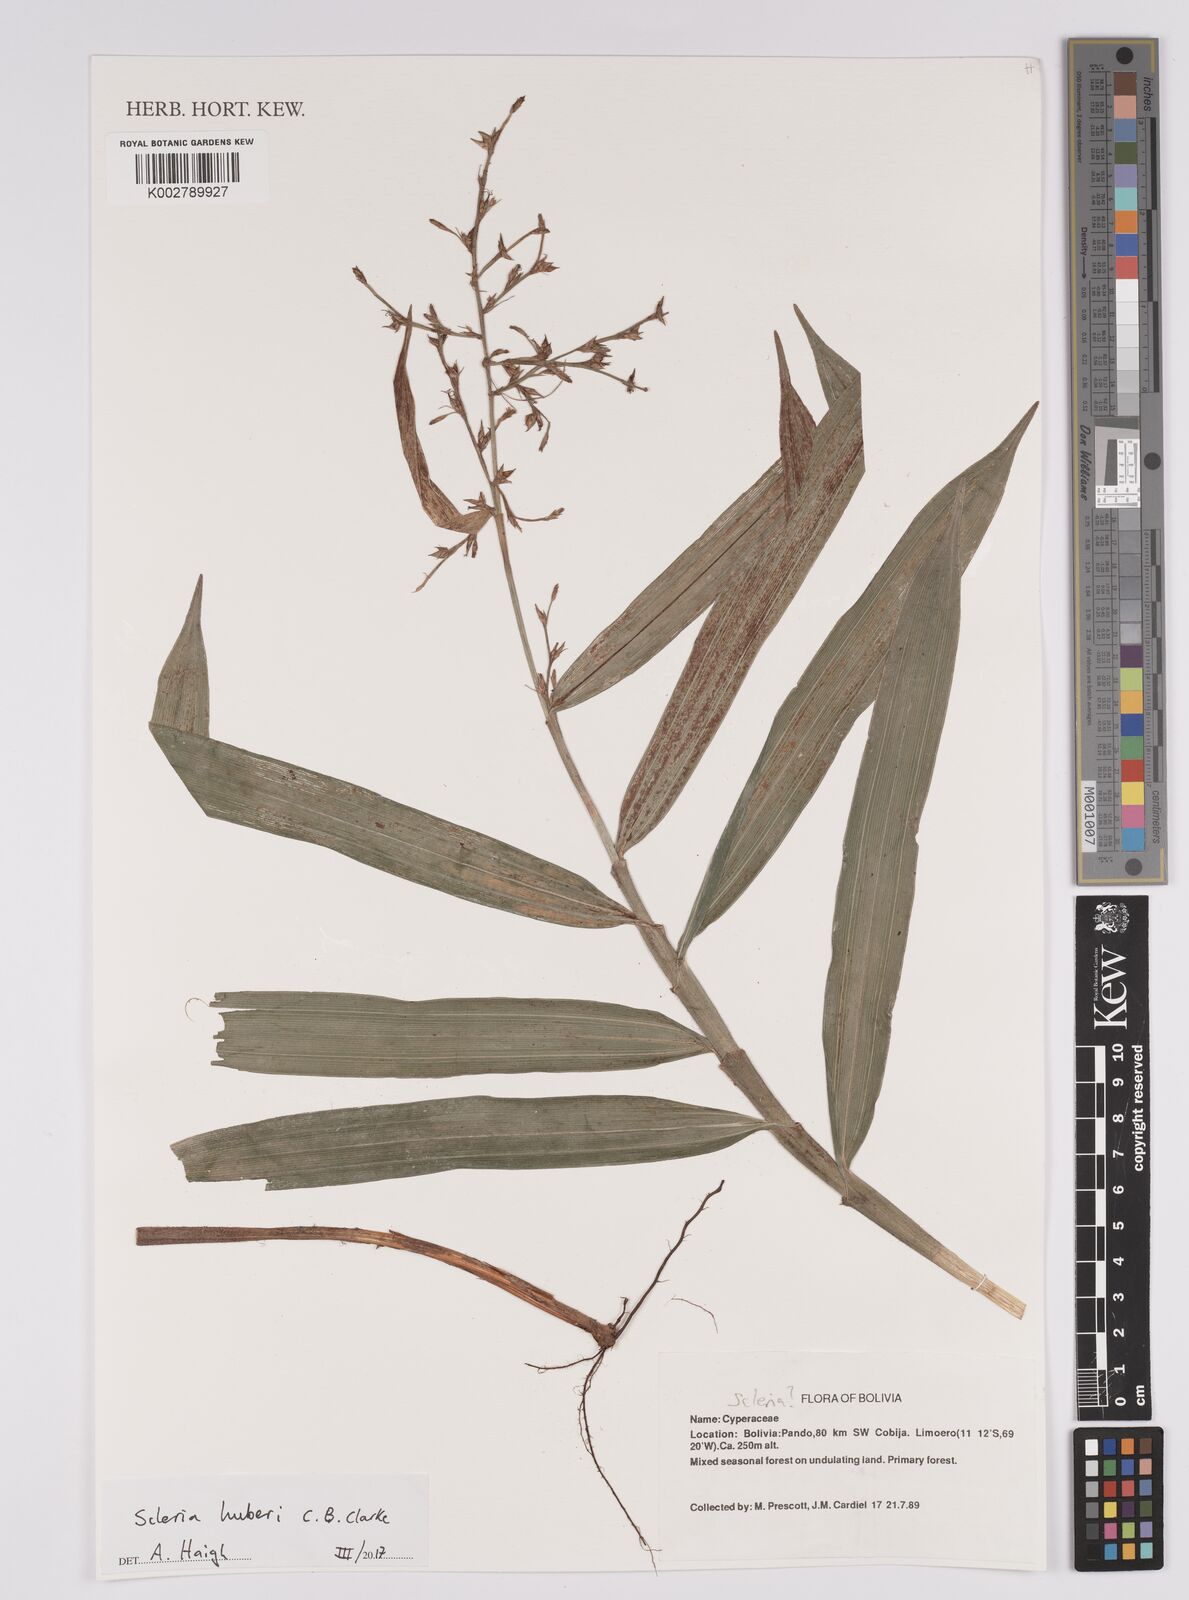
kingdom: Plantae
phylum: Tracheophyta
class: Liliopsida
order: Poales
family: Cyperaceae
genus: Scleria
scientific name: Scleria huberi
